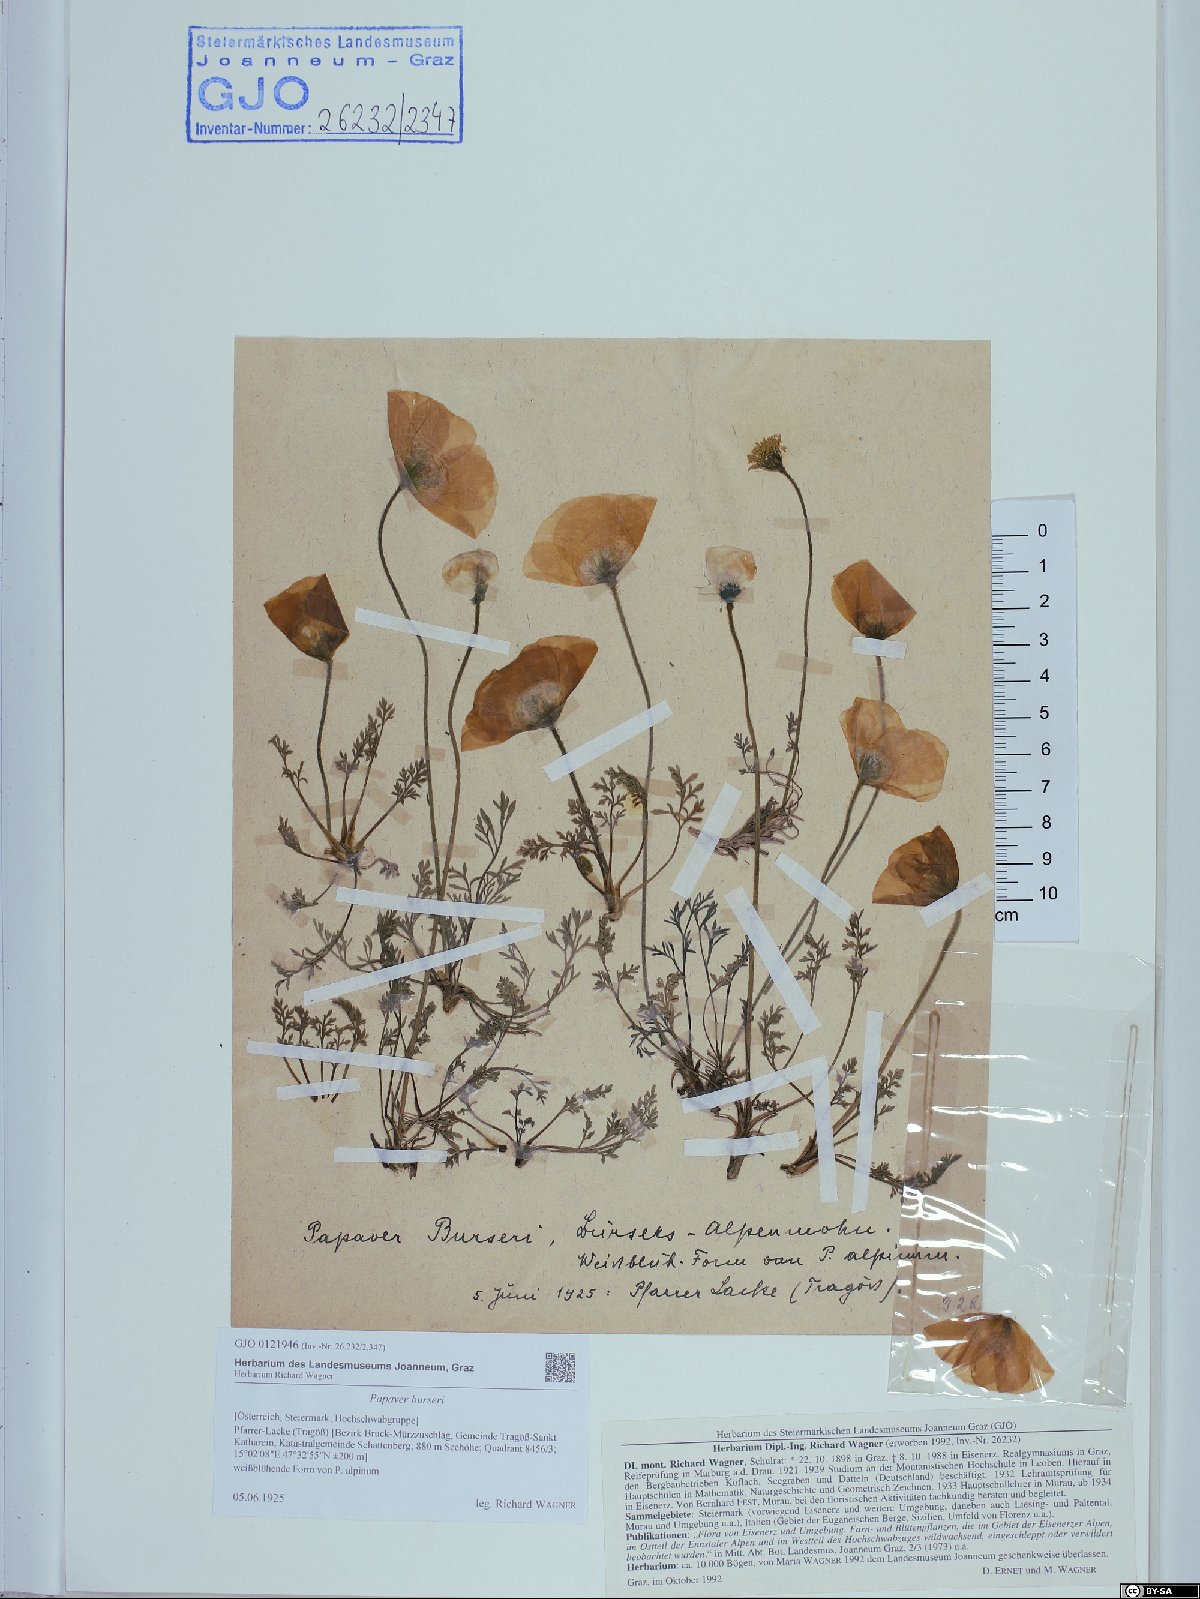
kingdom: Plantae
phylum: Tracheophyta
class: Magnoliopsida
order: Ranunculales
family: Papaveraceae
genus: Papaver
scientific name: Papaver alpinum
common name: Austrian poppy
